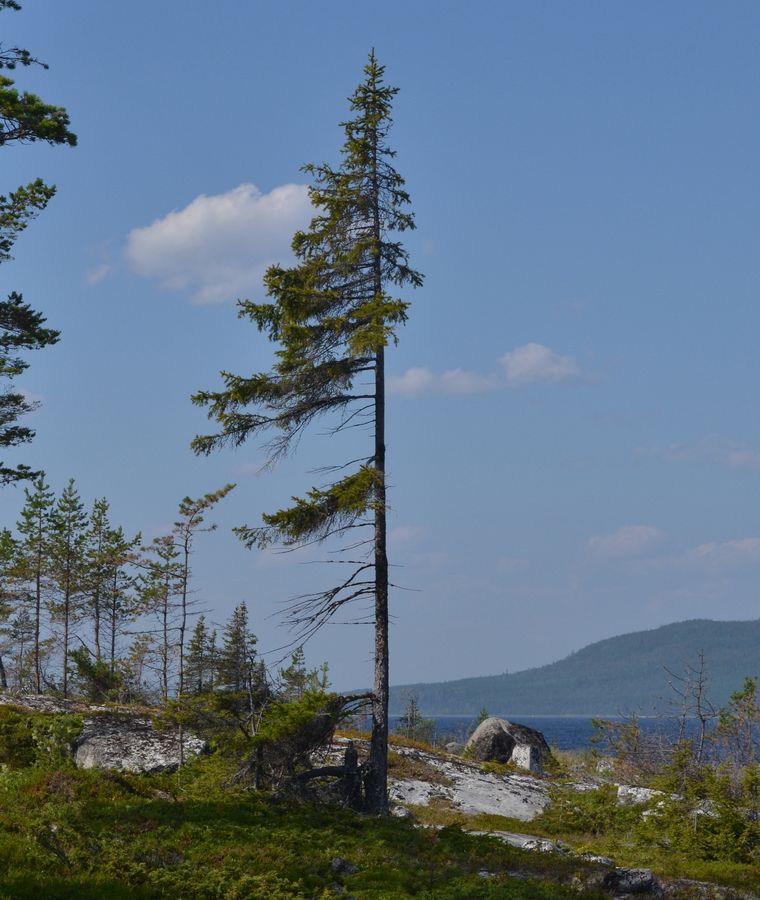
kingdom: Plantae
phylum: Tracheophyta
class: Pinopsida
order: Pinales
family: Pinaceae
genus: Picea
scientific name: Picea
